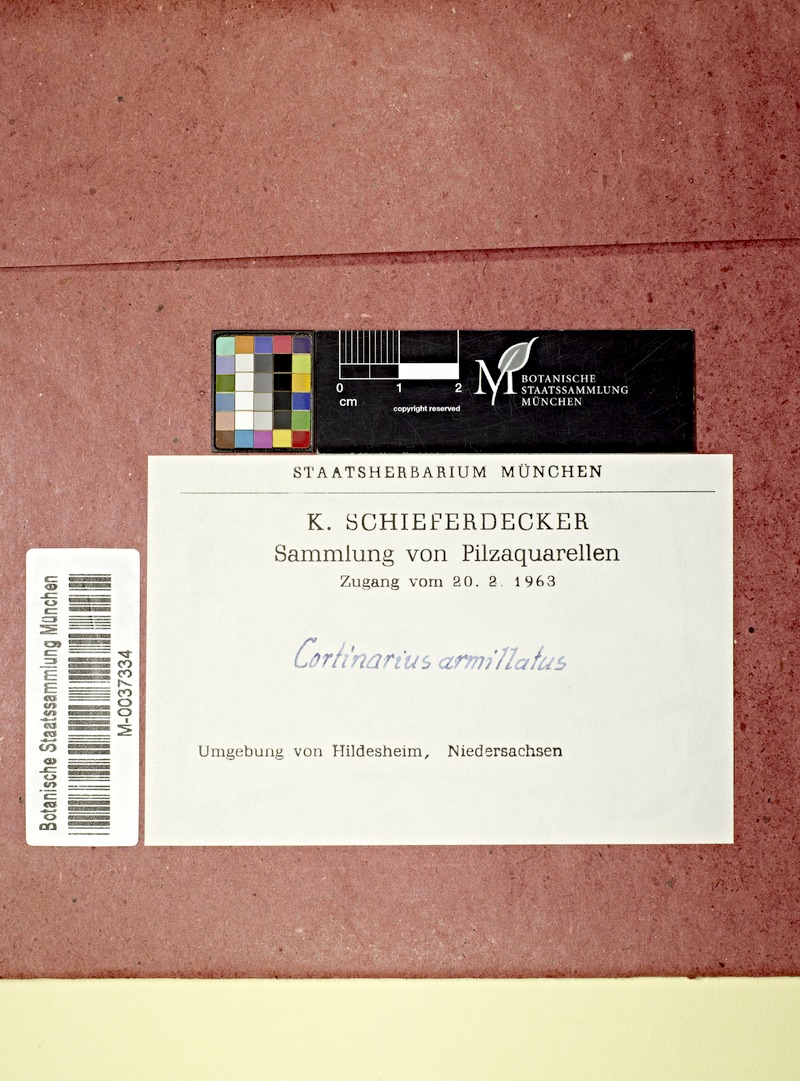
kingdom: Fungi
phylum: Basidiomycota
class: Agaricomycetes
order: Agaricales
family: Cortinariaceae
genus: Cortinarius
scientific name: Cortinarius armillatus
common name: Red banded webcap
